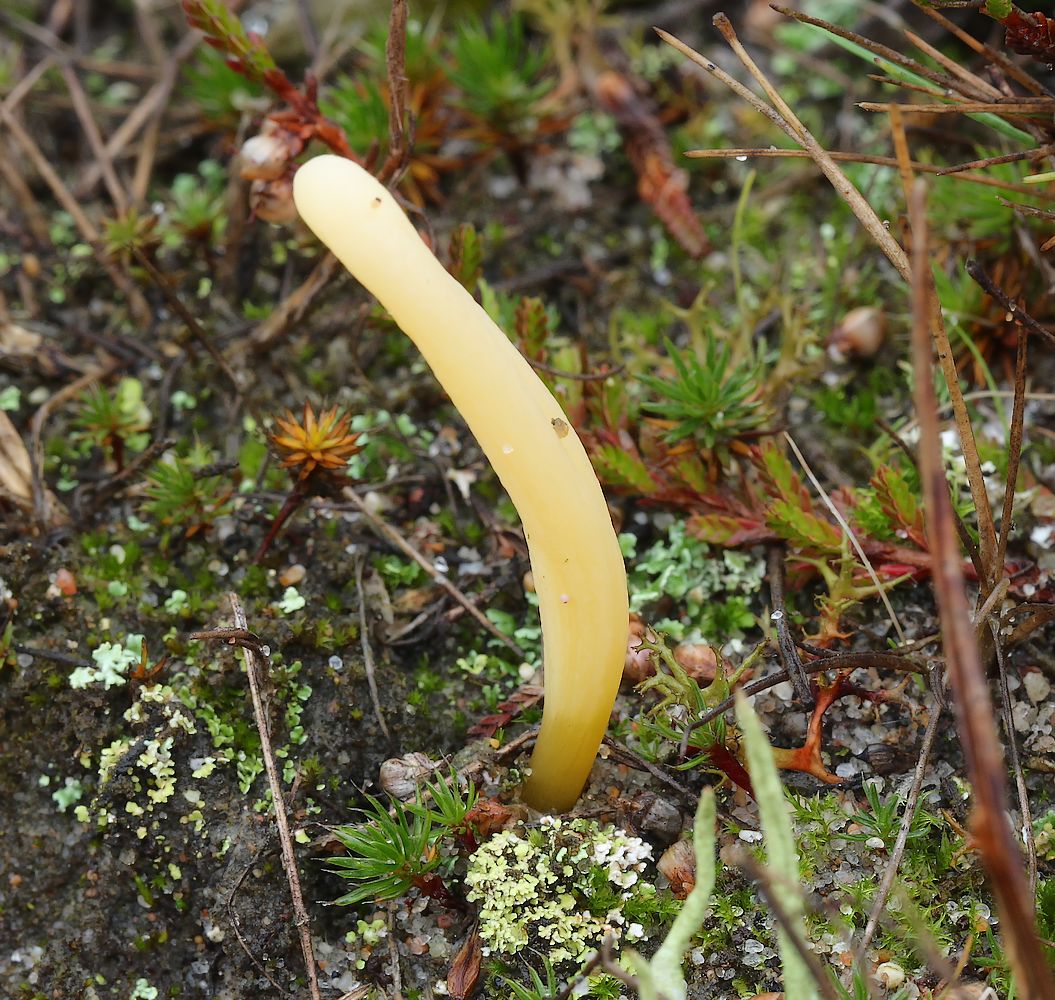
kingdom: Fungi
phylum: Basidiomycota
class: Agaricomycetes
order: Agaricales
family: Clavariaceae
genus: Clavaria
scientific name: Clavaria argillacea
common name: lerfarvet køllesvamp
